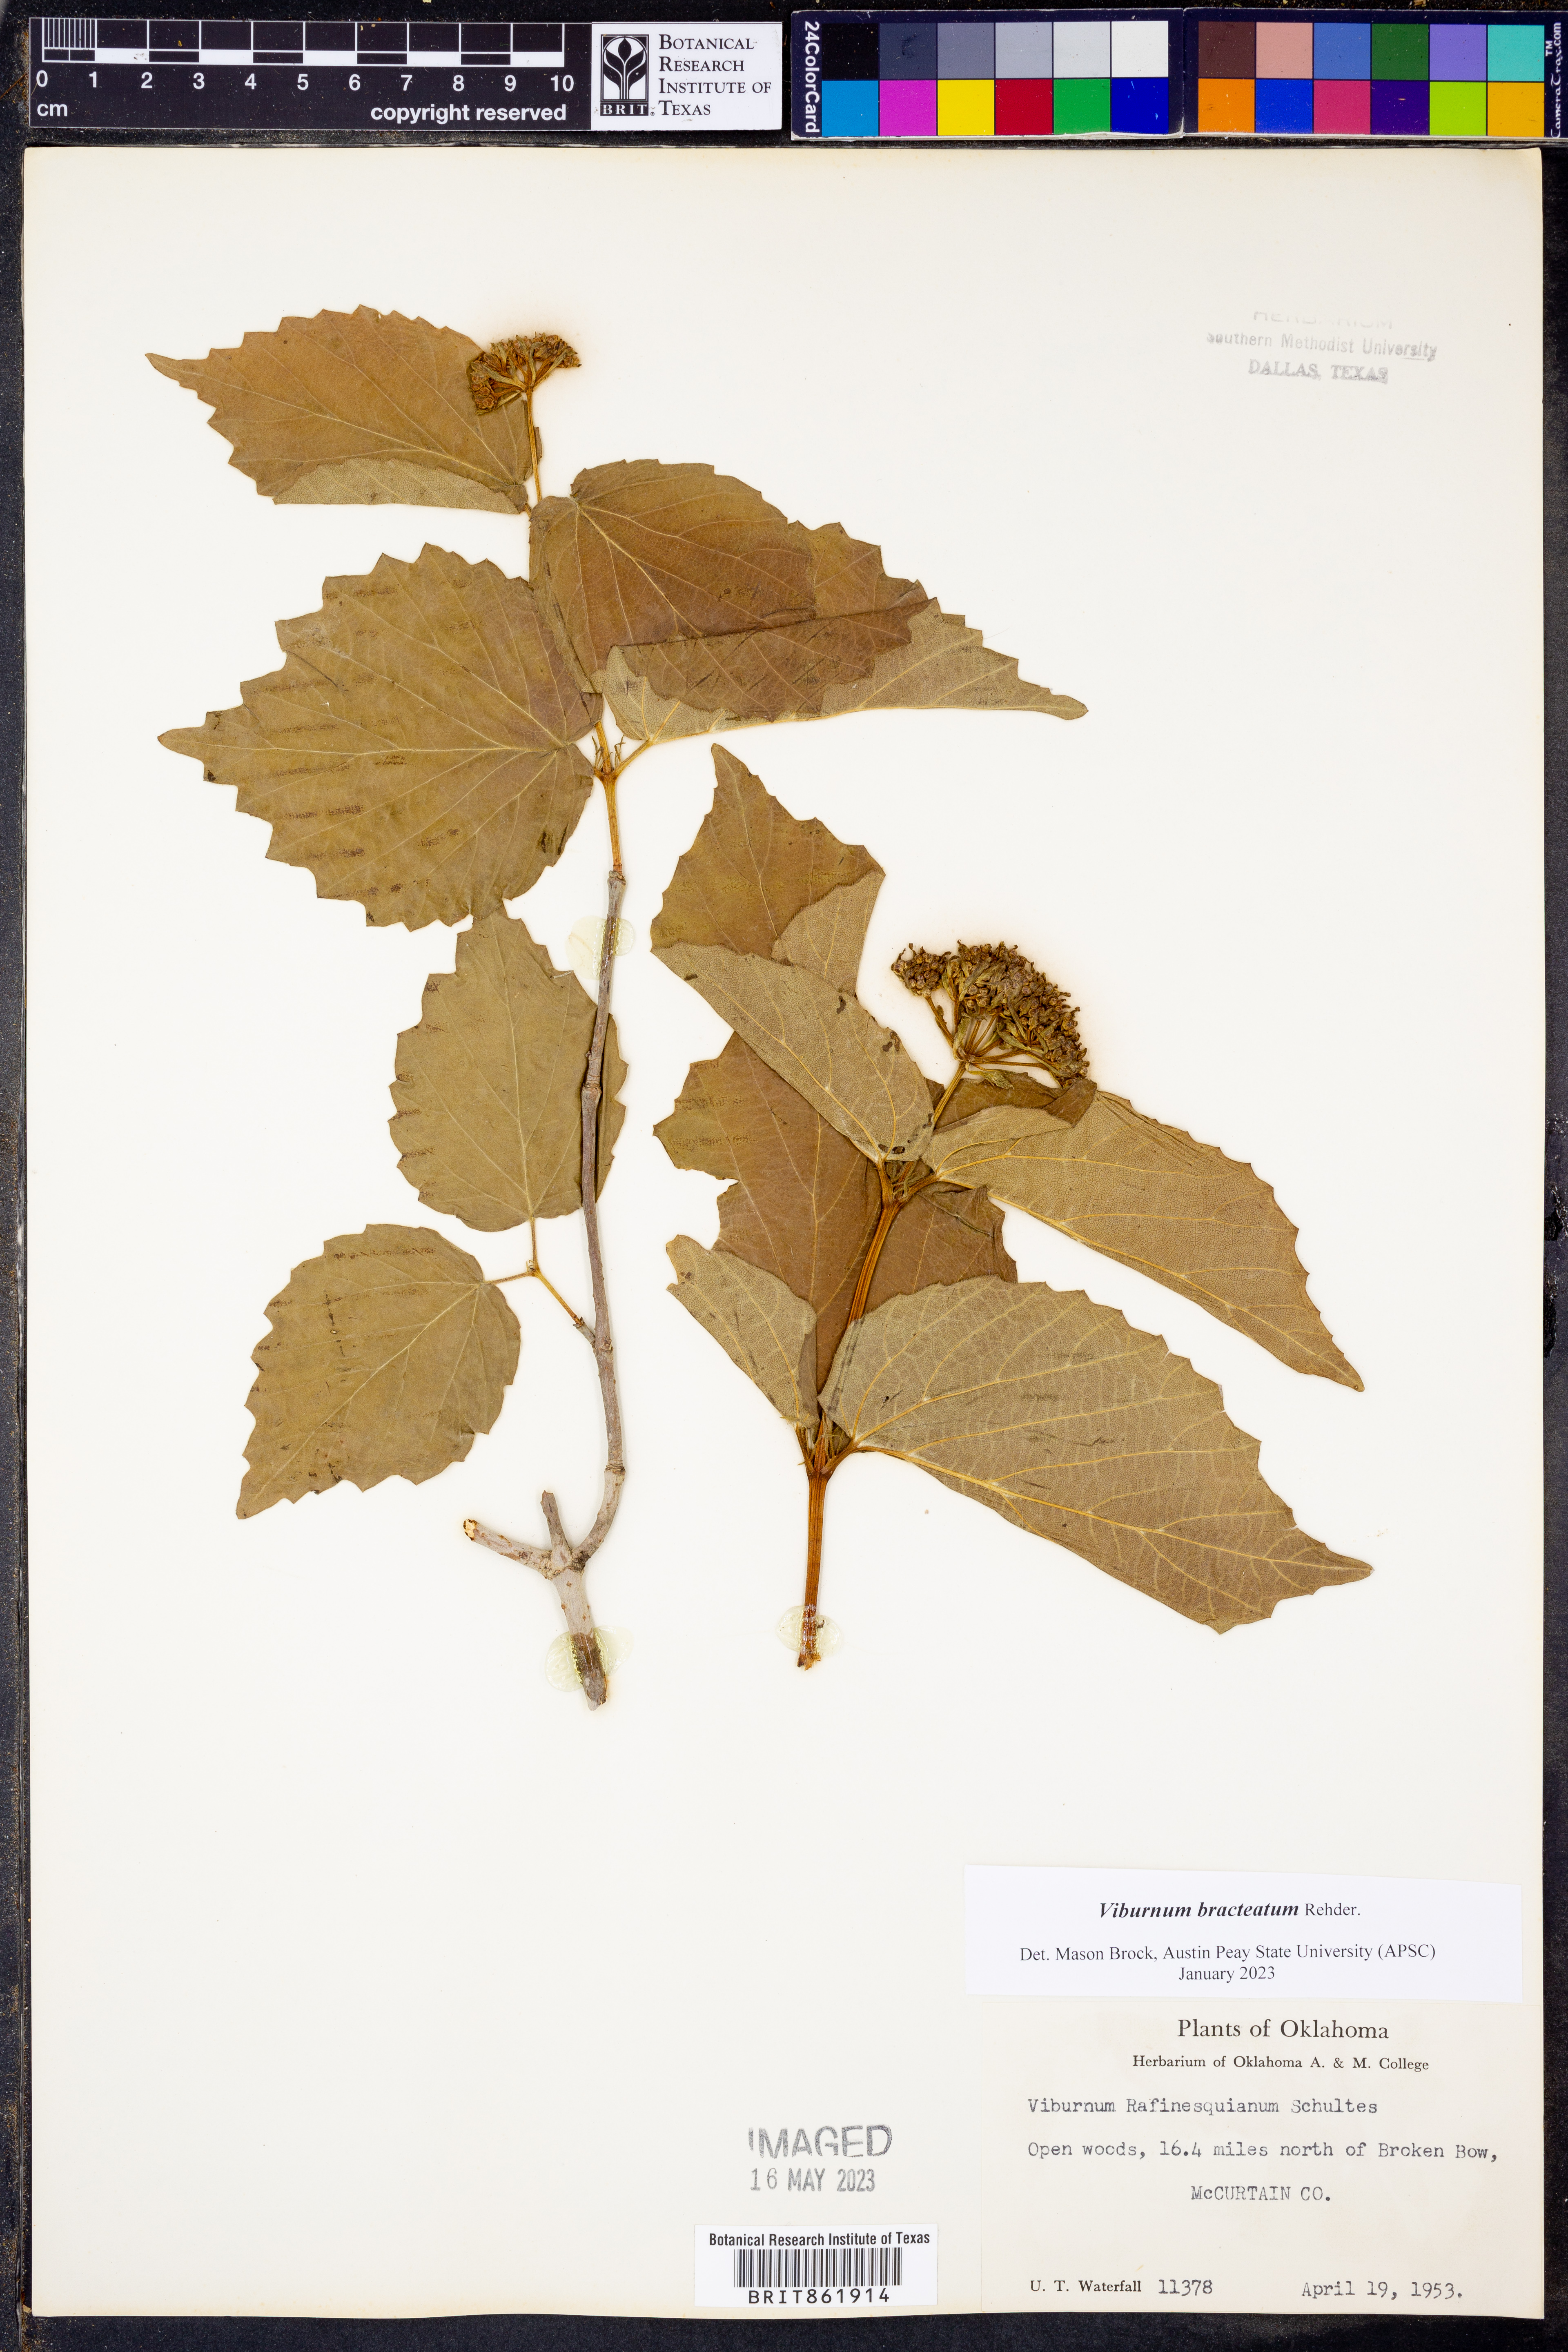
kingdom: Plantae
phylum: Tracheophyta
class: Magnoliopsida
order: Dipsacales
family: Viburnaceae
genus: Viburnum
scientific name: Viburnum bracteatum
